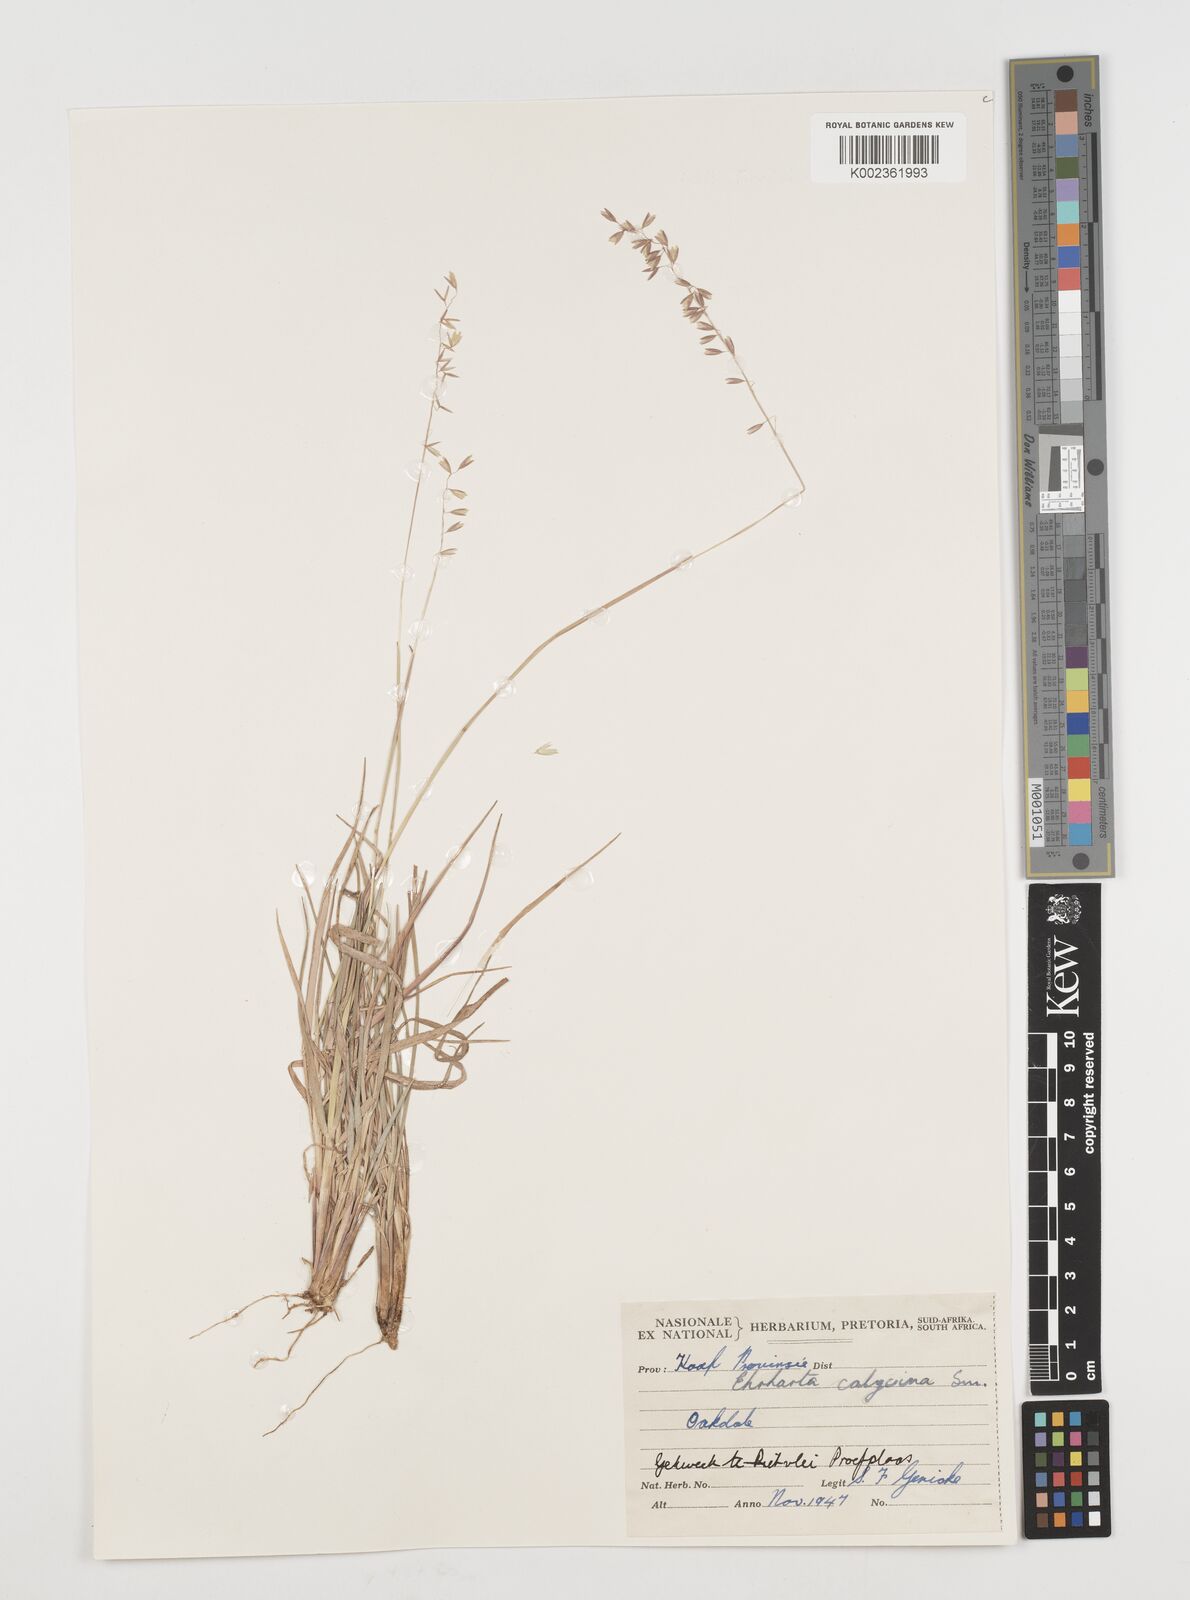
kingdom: Plantae
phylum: Tracheophyta
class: Liliopsida
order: Poales
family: Poaceae
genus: Ehrharta
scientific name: Ehrharta calycina
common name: Perennial veldtgrass
